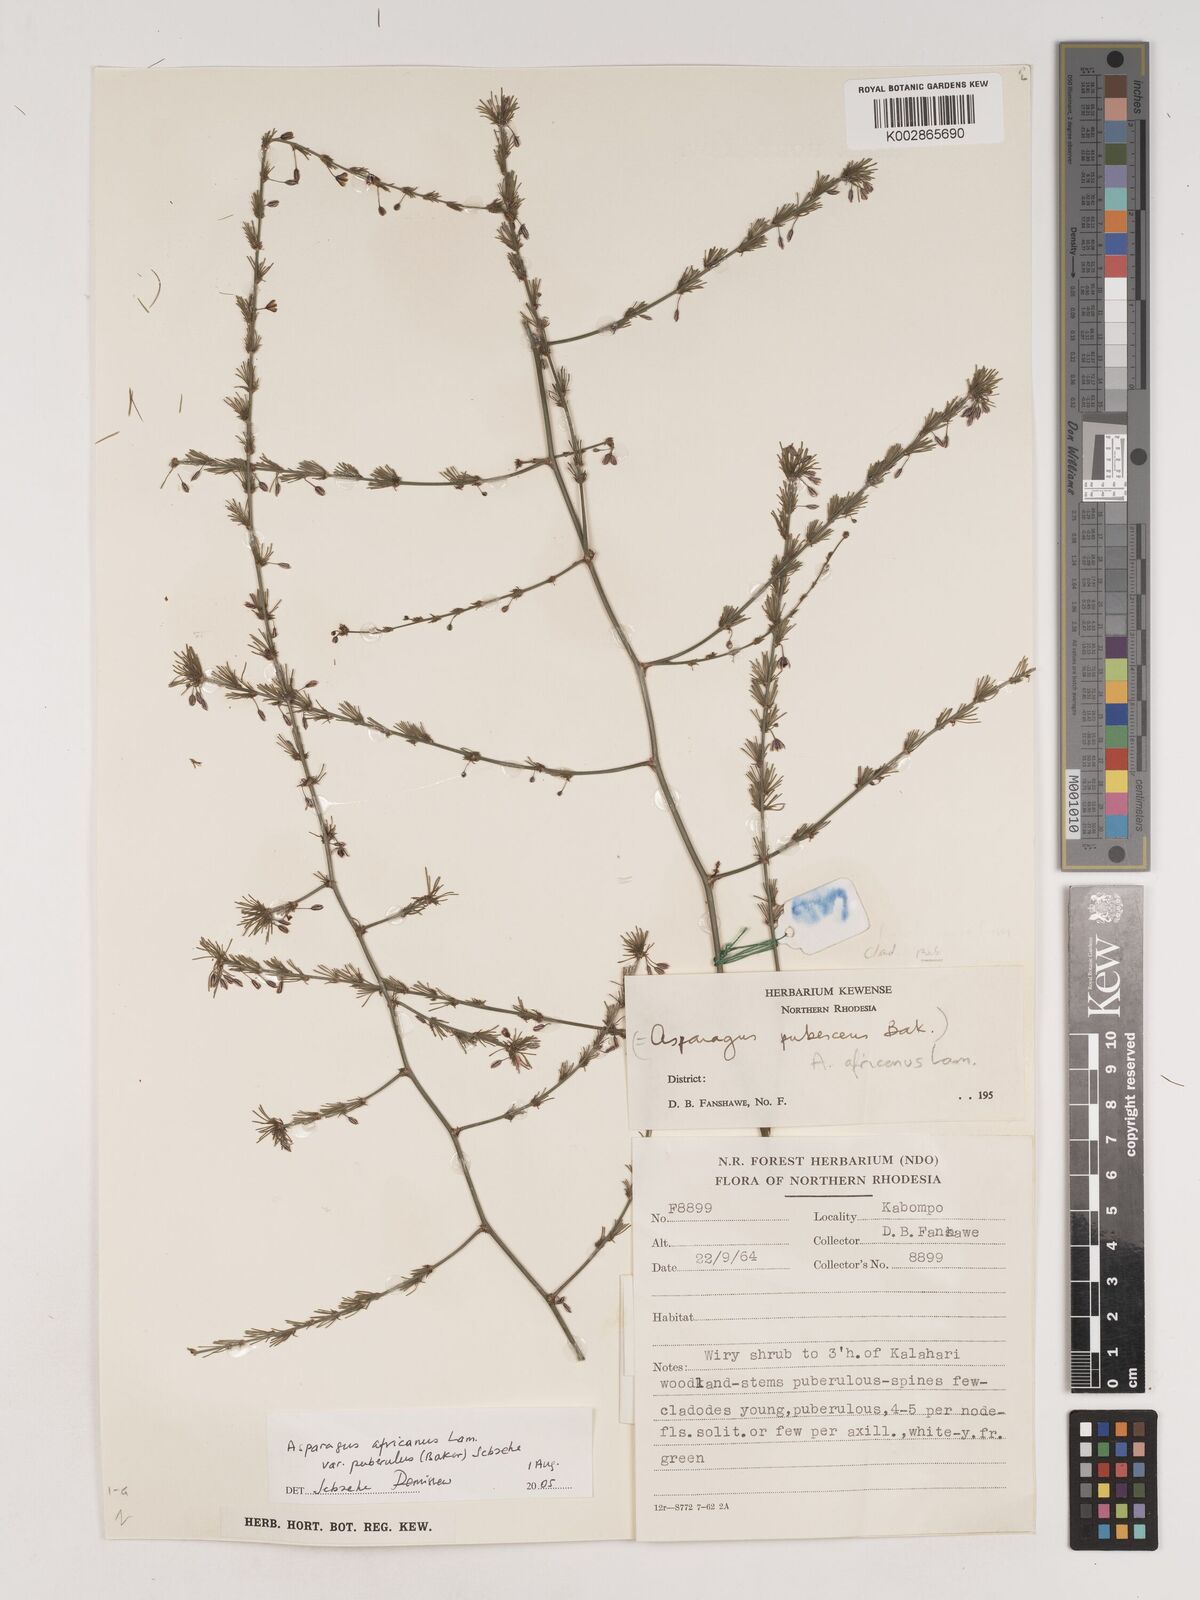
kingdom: Plantae
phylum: Tracheophyta
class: Liliopsida
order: Asparagales
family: Asparagaceae
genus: Asparagus
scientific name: Asparagus
